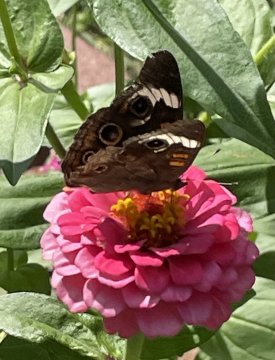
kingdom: Animalia
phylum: Arthropoda
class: Insecta
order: Lepidoptera
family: Nymphalidae
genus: Junonia
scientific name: Junonia coenia
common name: Common Buckeye
